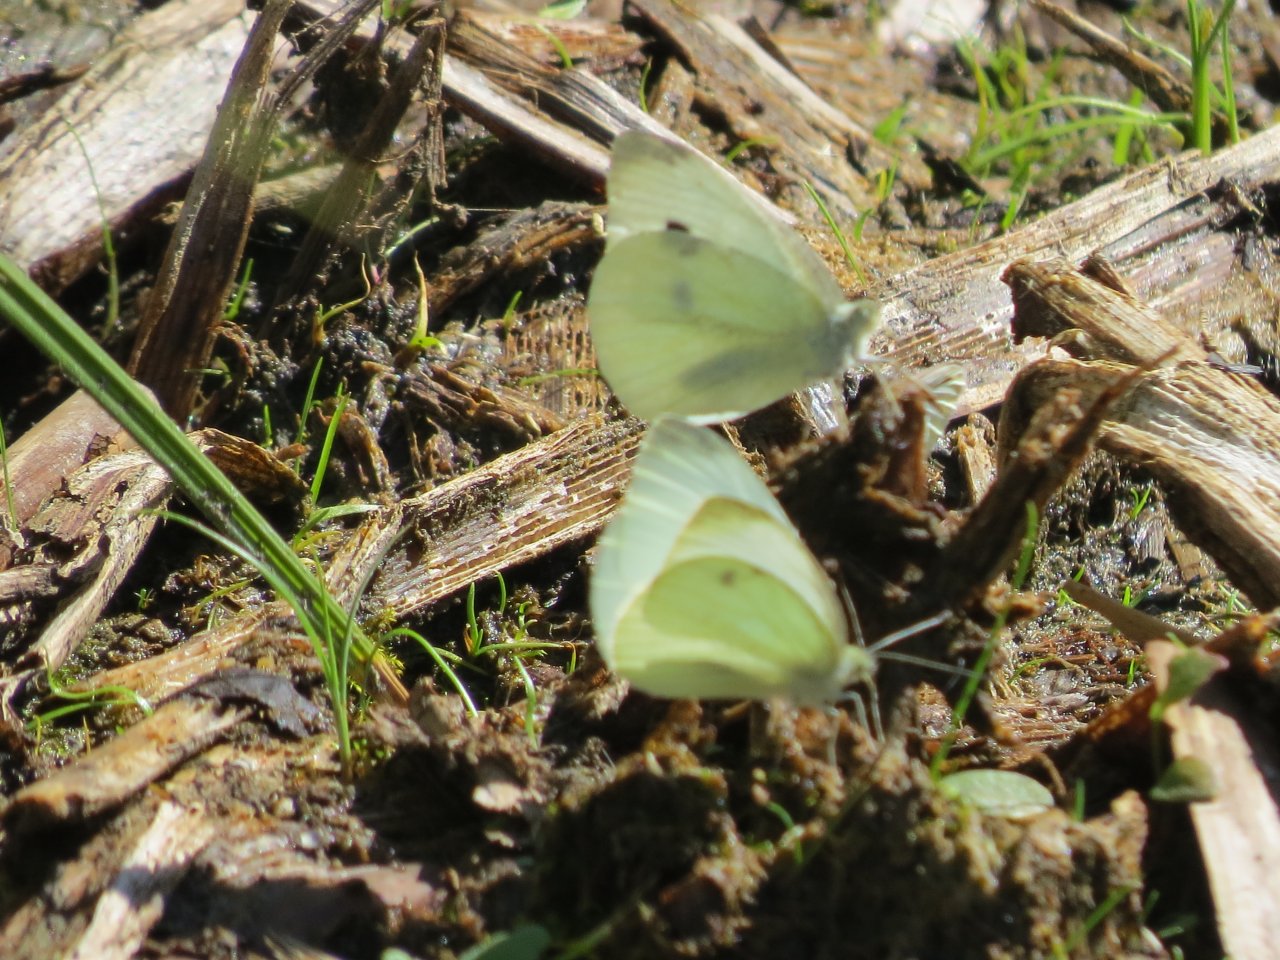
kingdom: Animalia
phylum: Arthropoda
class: Insecta
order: Lepidoptera
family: Pieridae
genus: Pieris
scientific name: Pieris rapae
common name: Cabbage White
